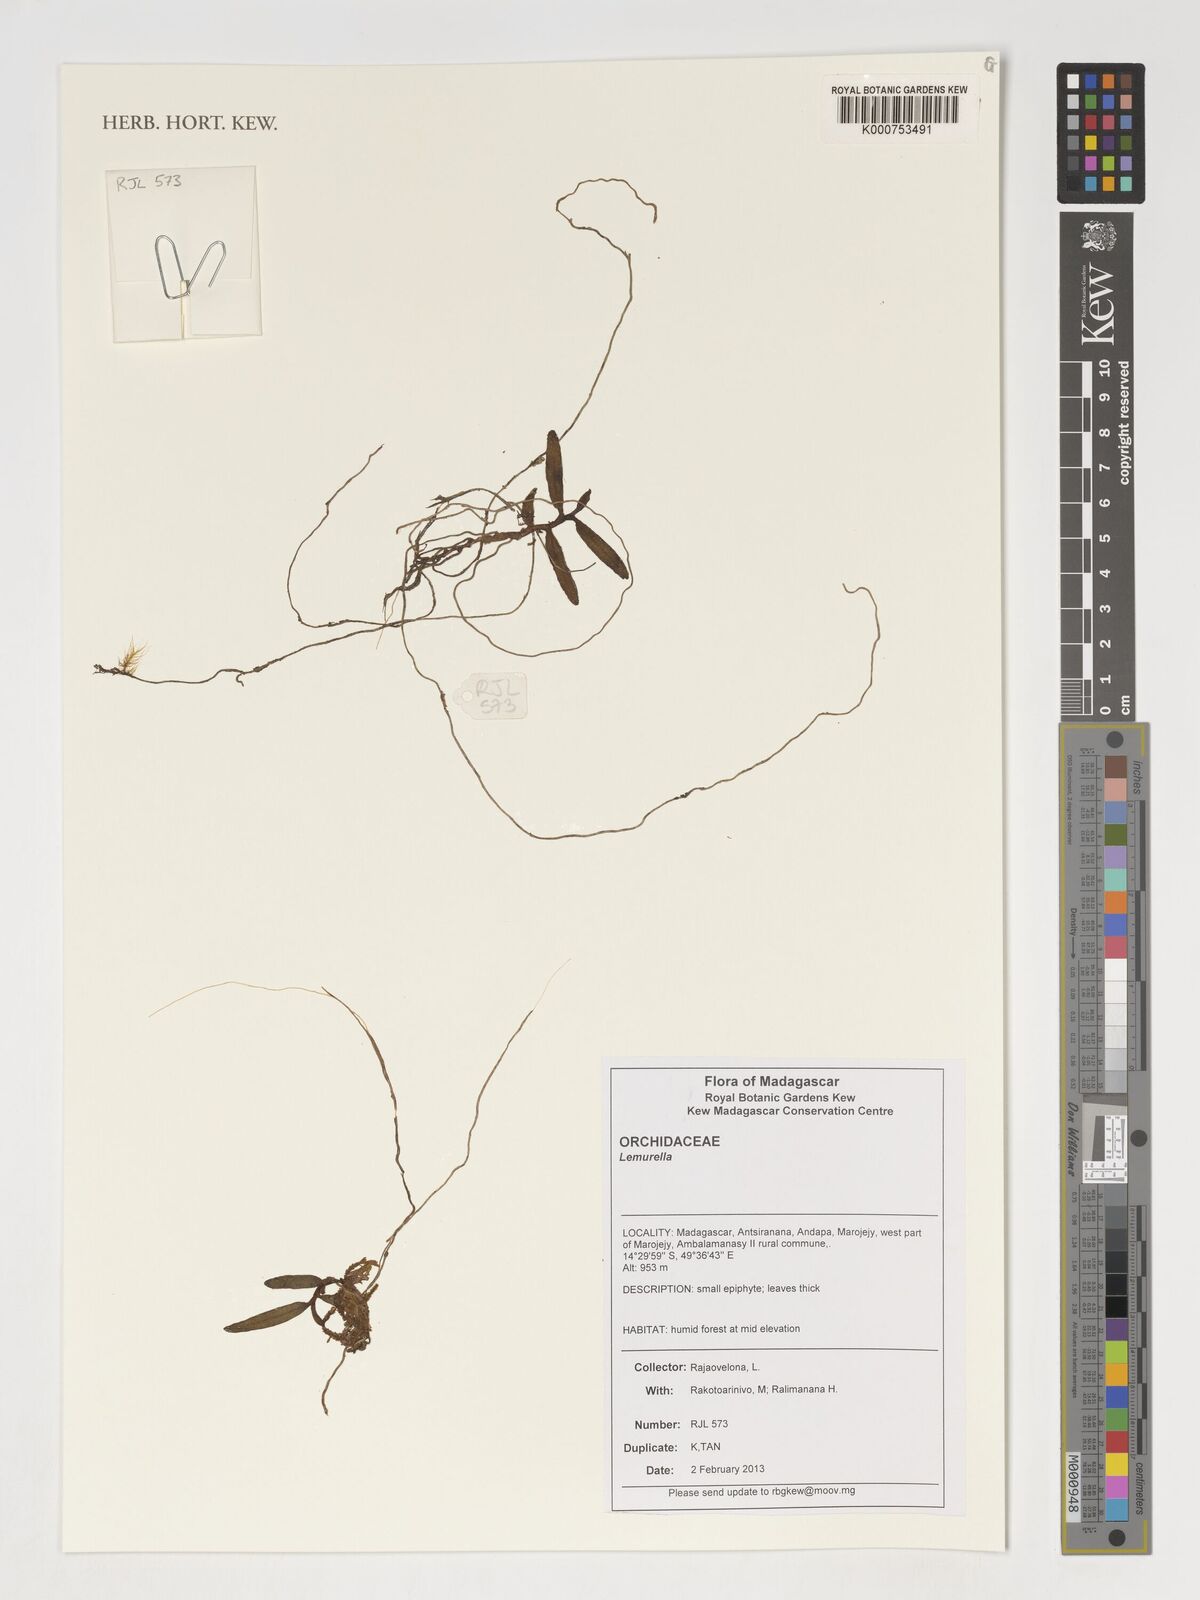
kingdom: Plantae
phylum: Tracheophyta
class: Liliopsida
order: Asparagales
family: Orchidaceae
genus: Lemurella
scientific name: Lemurella
